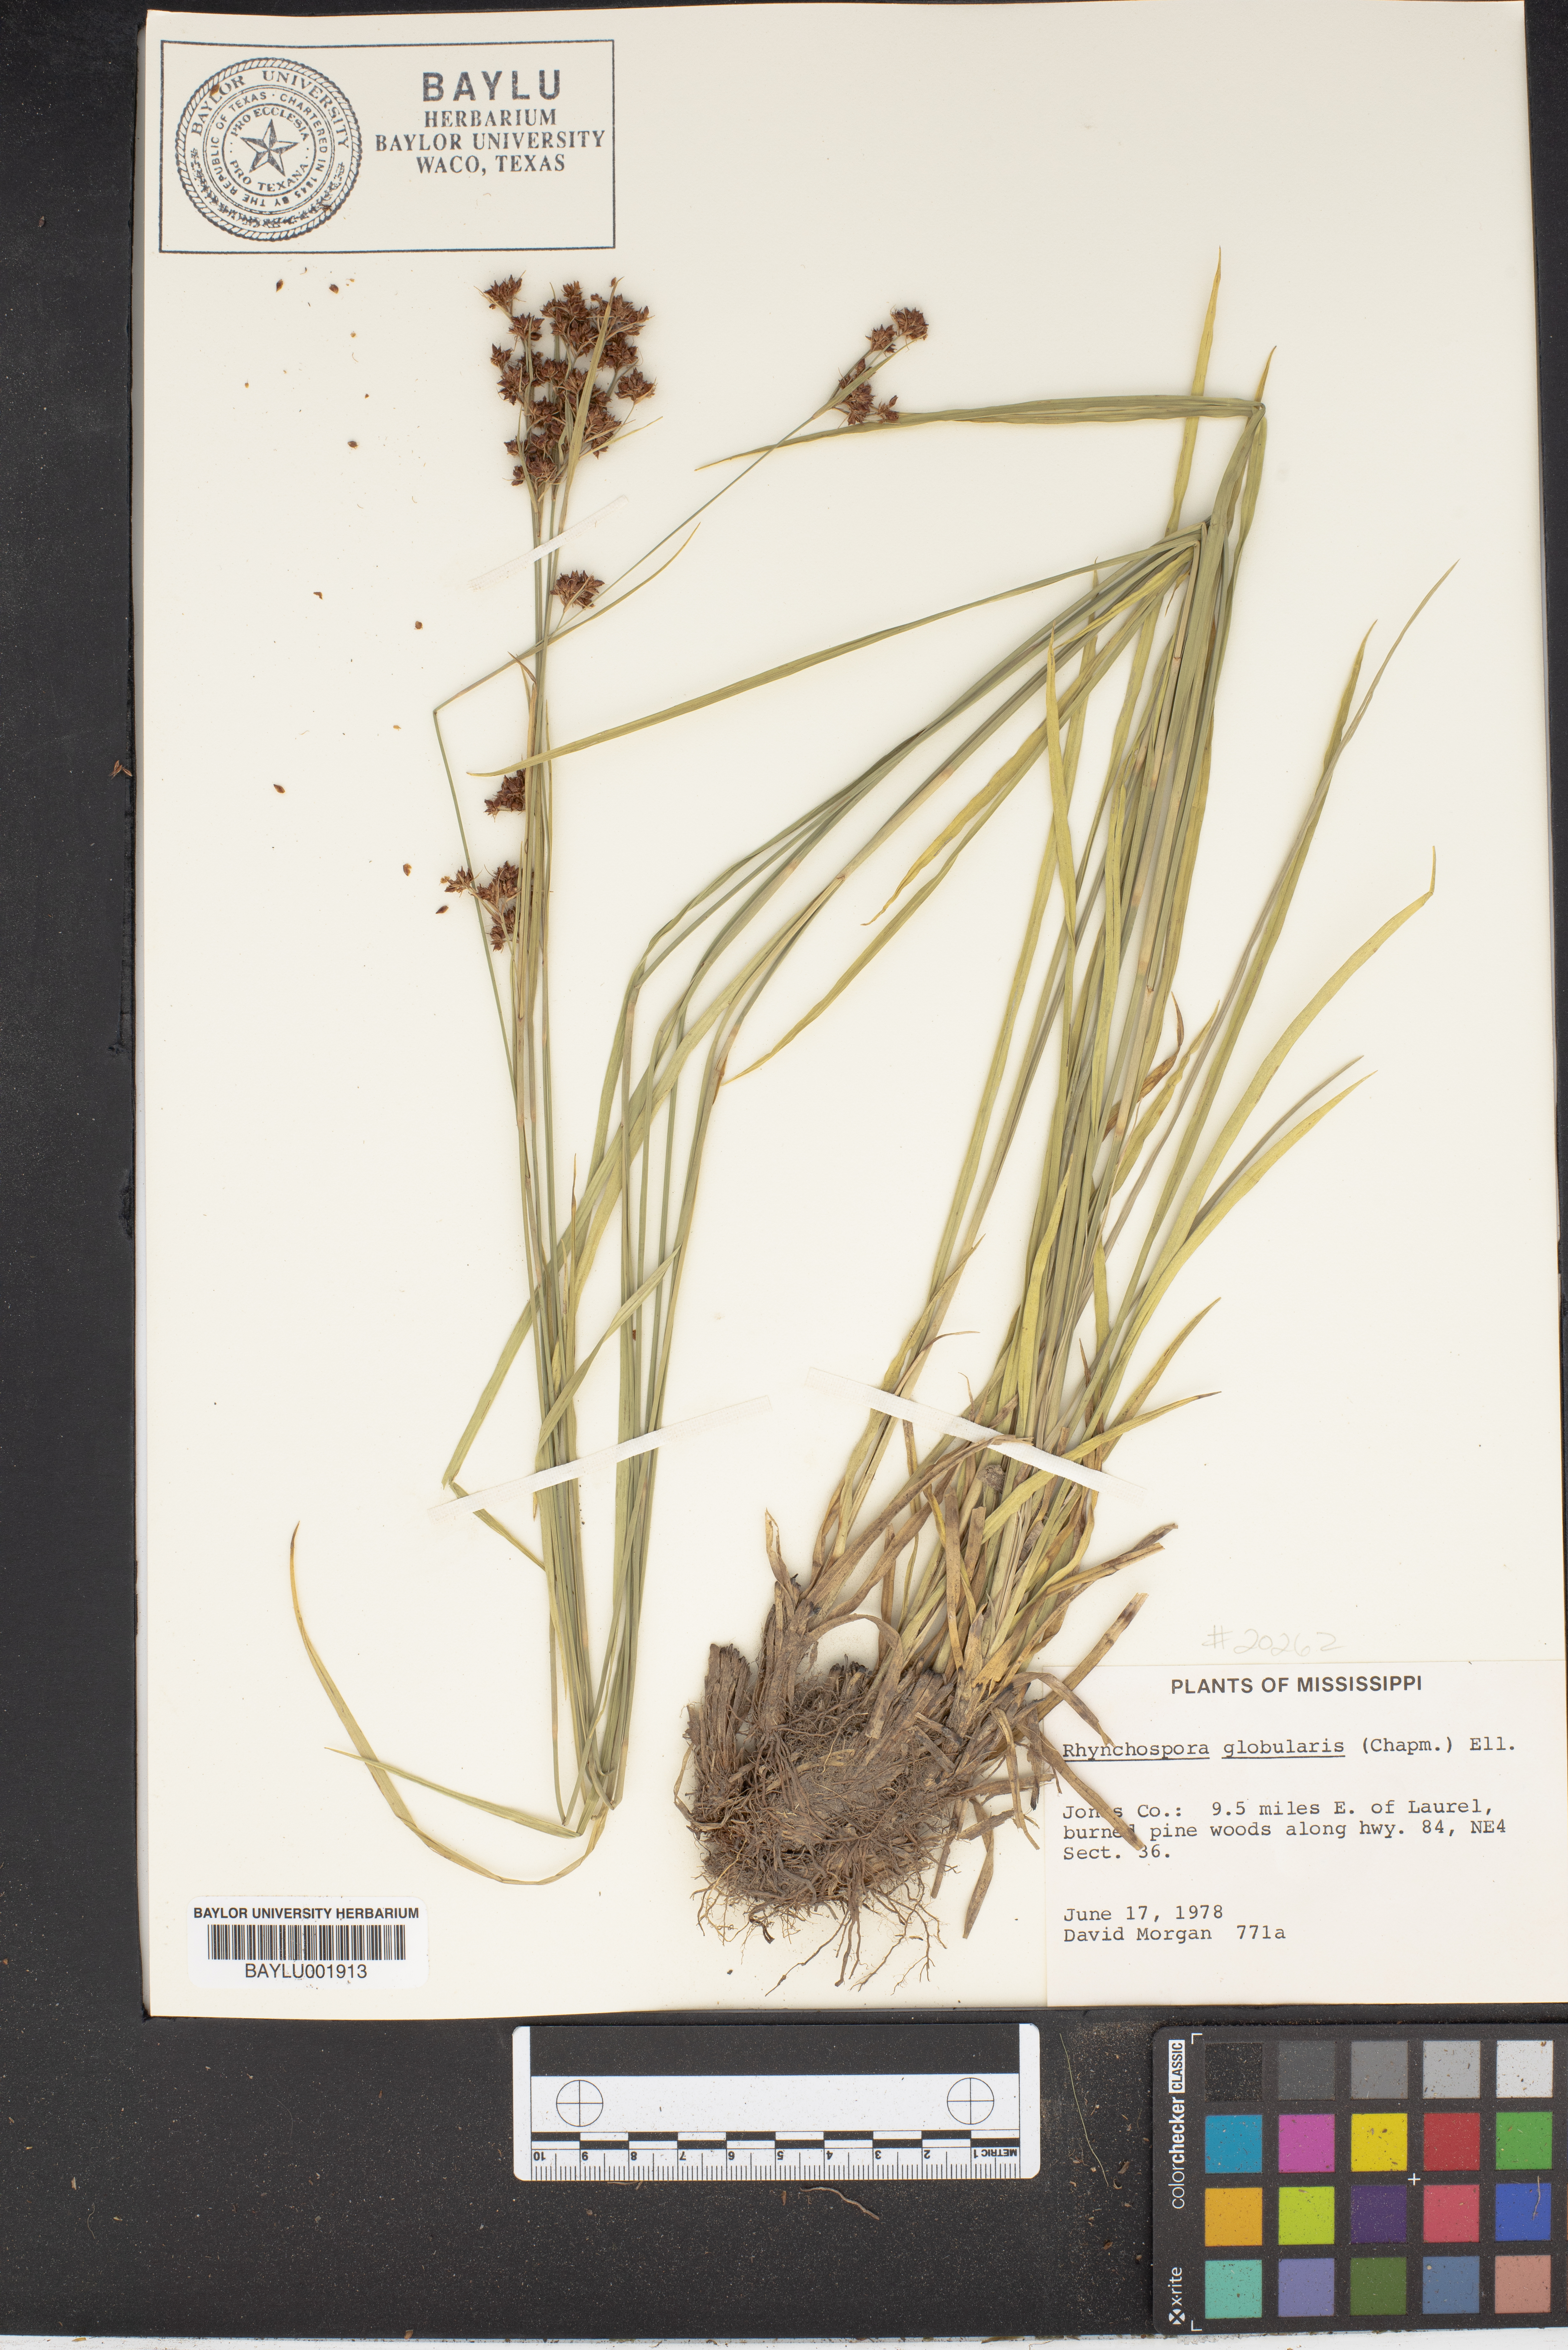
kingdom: Plantae
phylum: Tracheophyta
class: Liliopsida
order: Poales
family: Cyperaceae
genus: Rhynchospora
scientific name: Rhynchospora globularis
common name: Globe beaksedge
